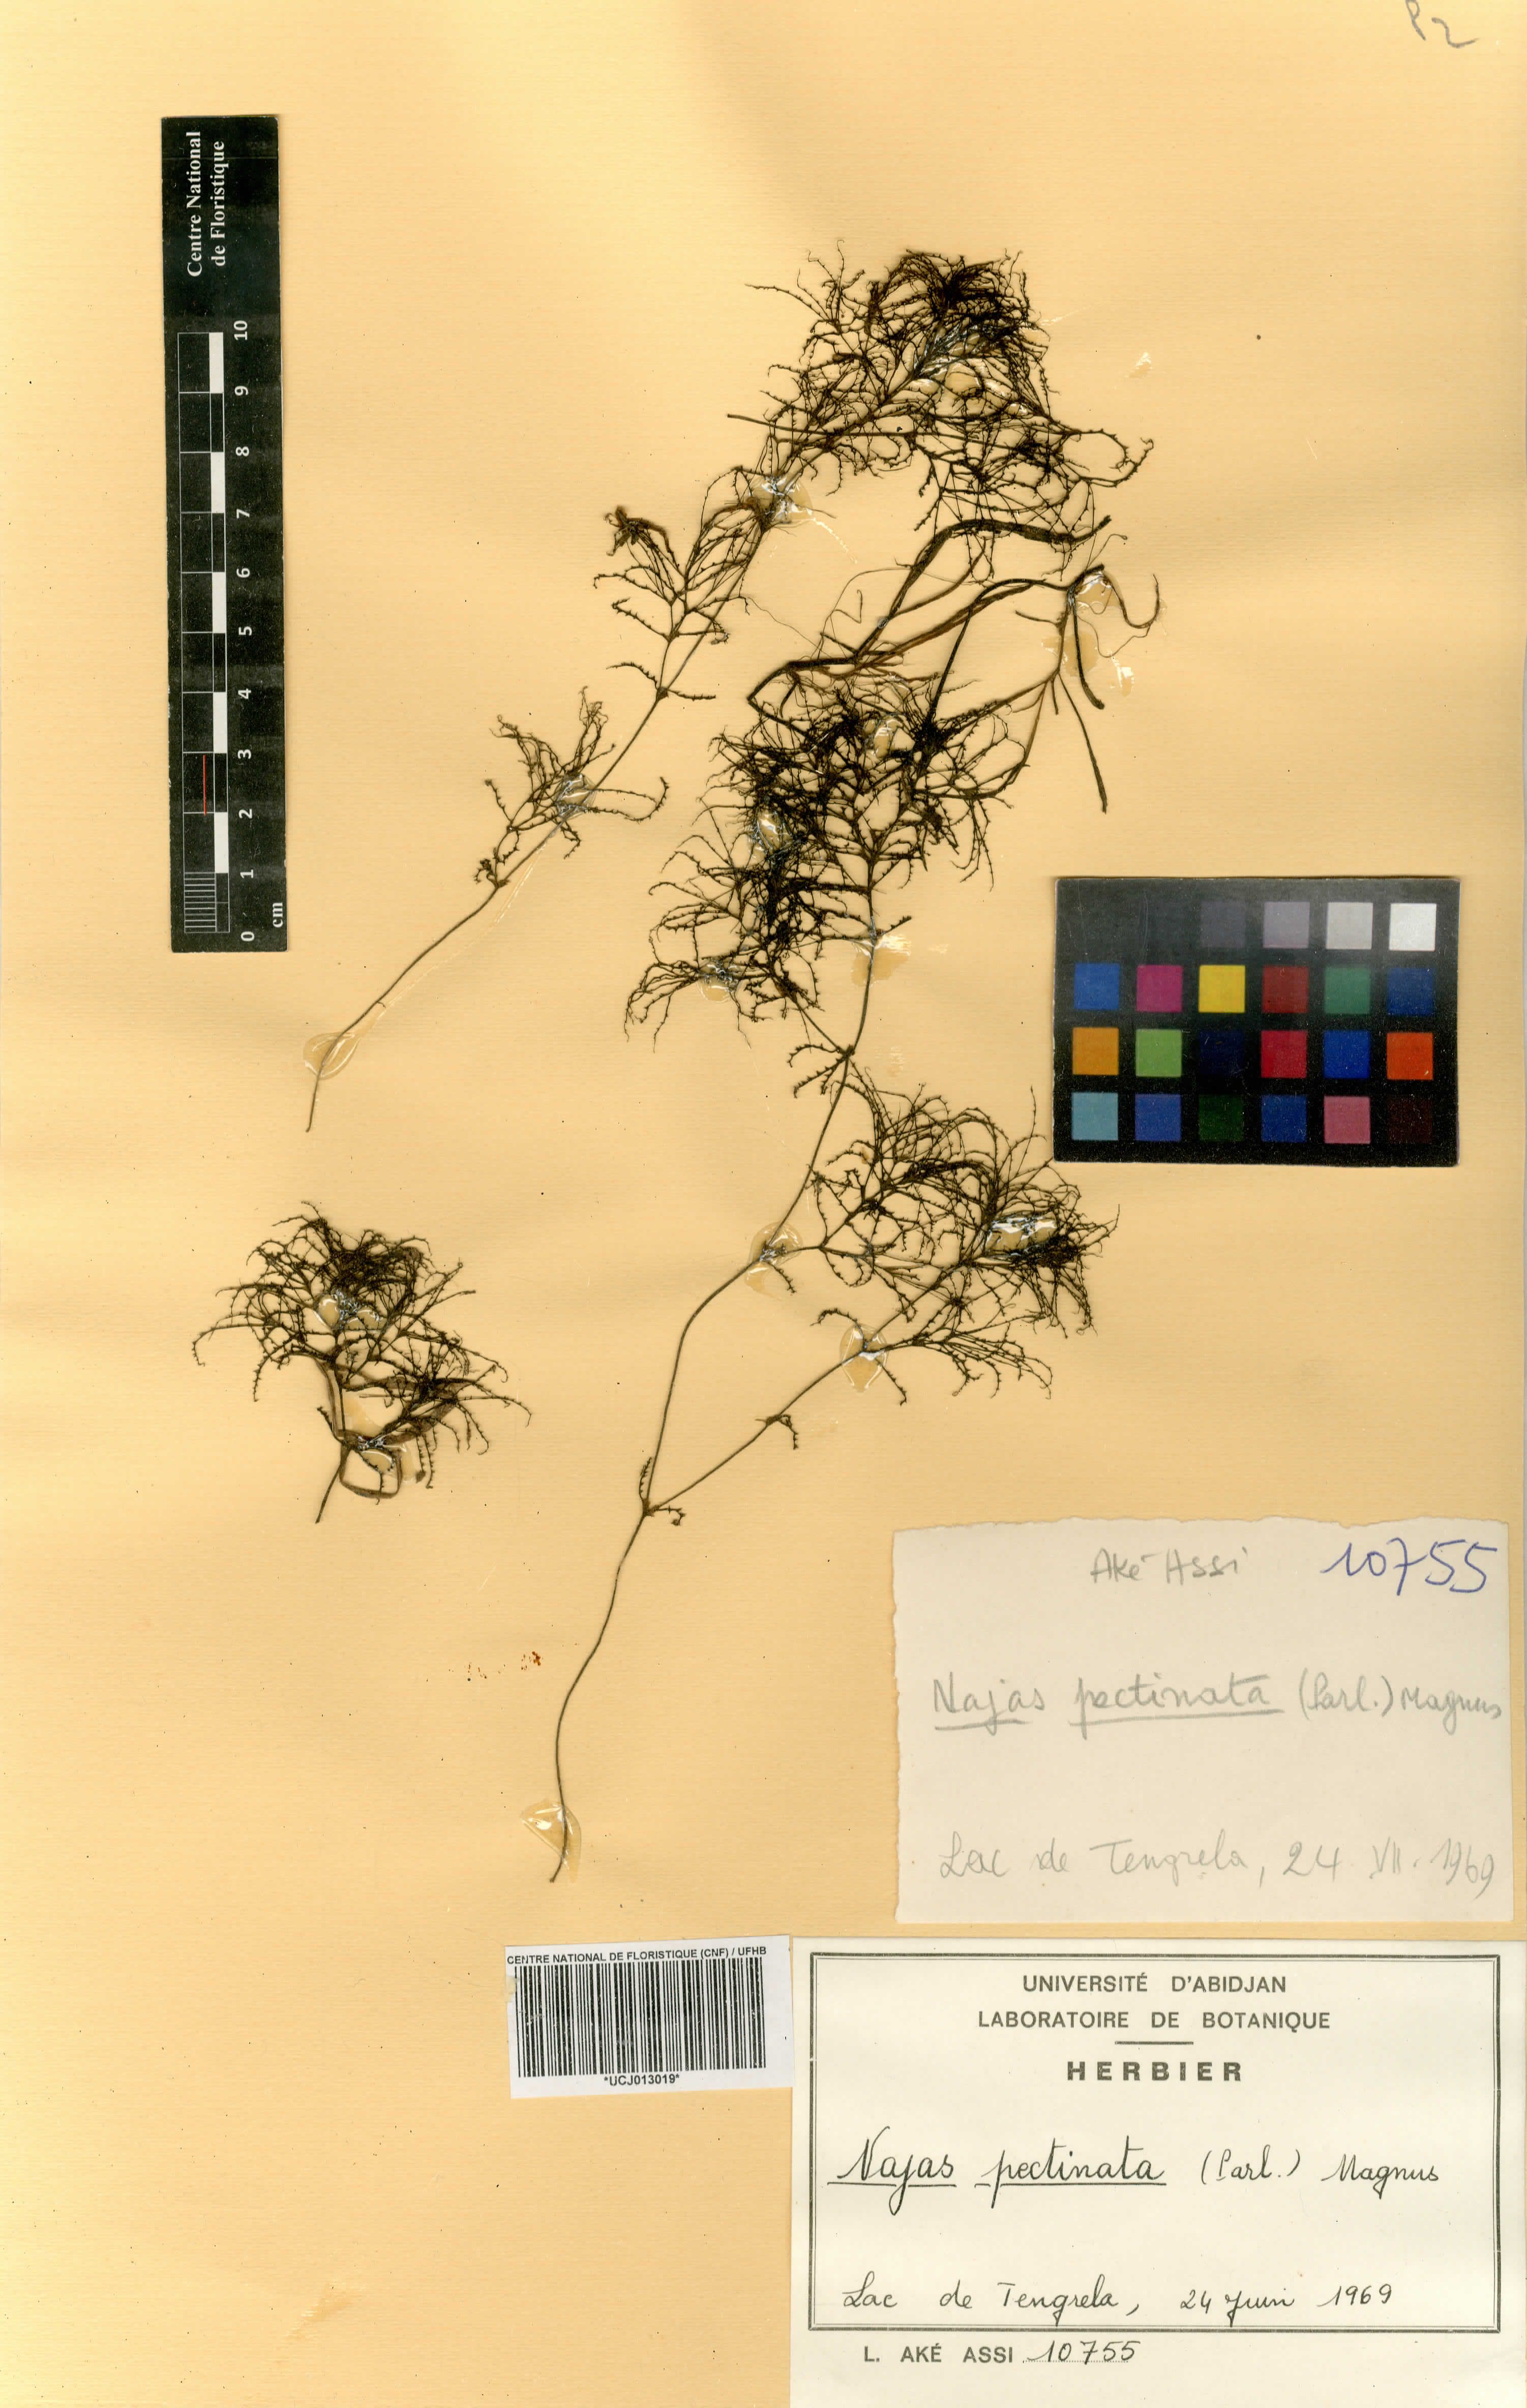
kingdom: Plantae
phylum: Tracheophyta
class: Liliopsida
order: Alismatales
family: Hydrocharitaceae
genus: Najas
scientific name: Najas pectinata
